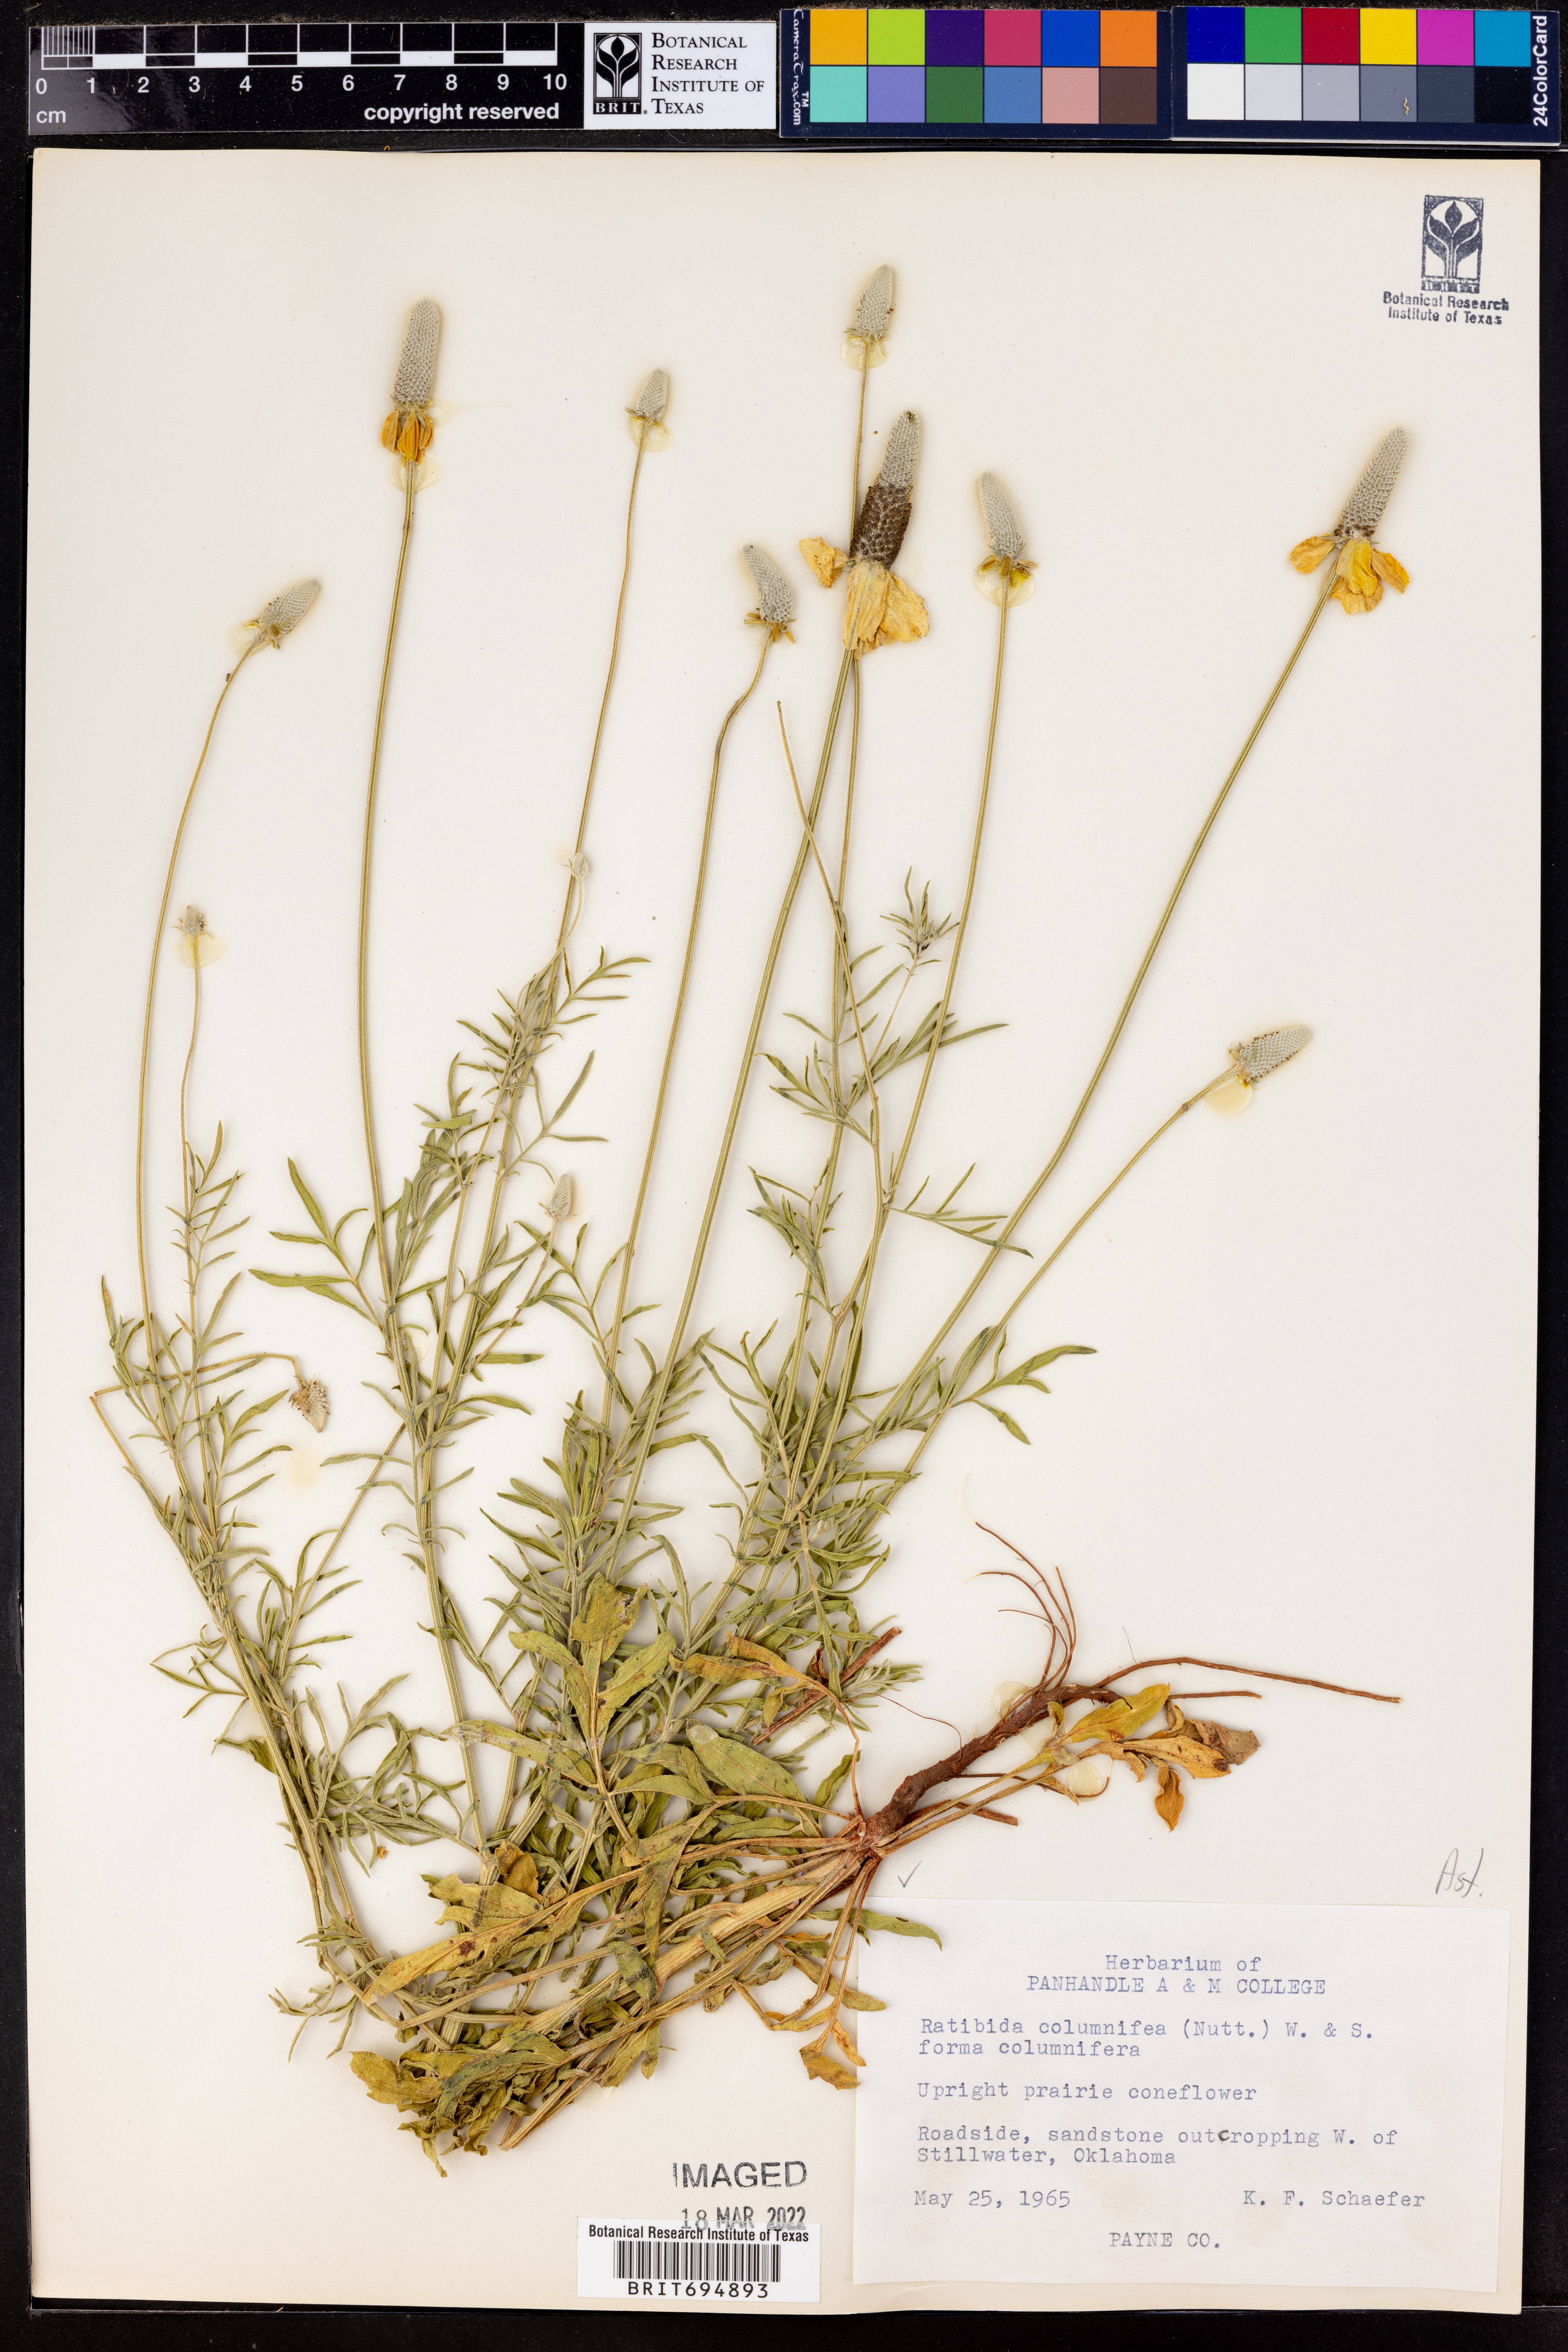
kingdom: Plantae
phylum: Tracheophyta
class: Magnoliopsida
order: Asterales
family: Asteraceae
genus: Ratibida
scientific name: Ratibida columnifera
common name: Prairie coneflower
